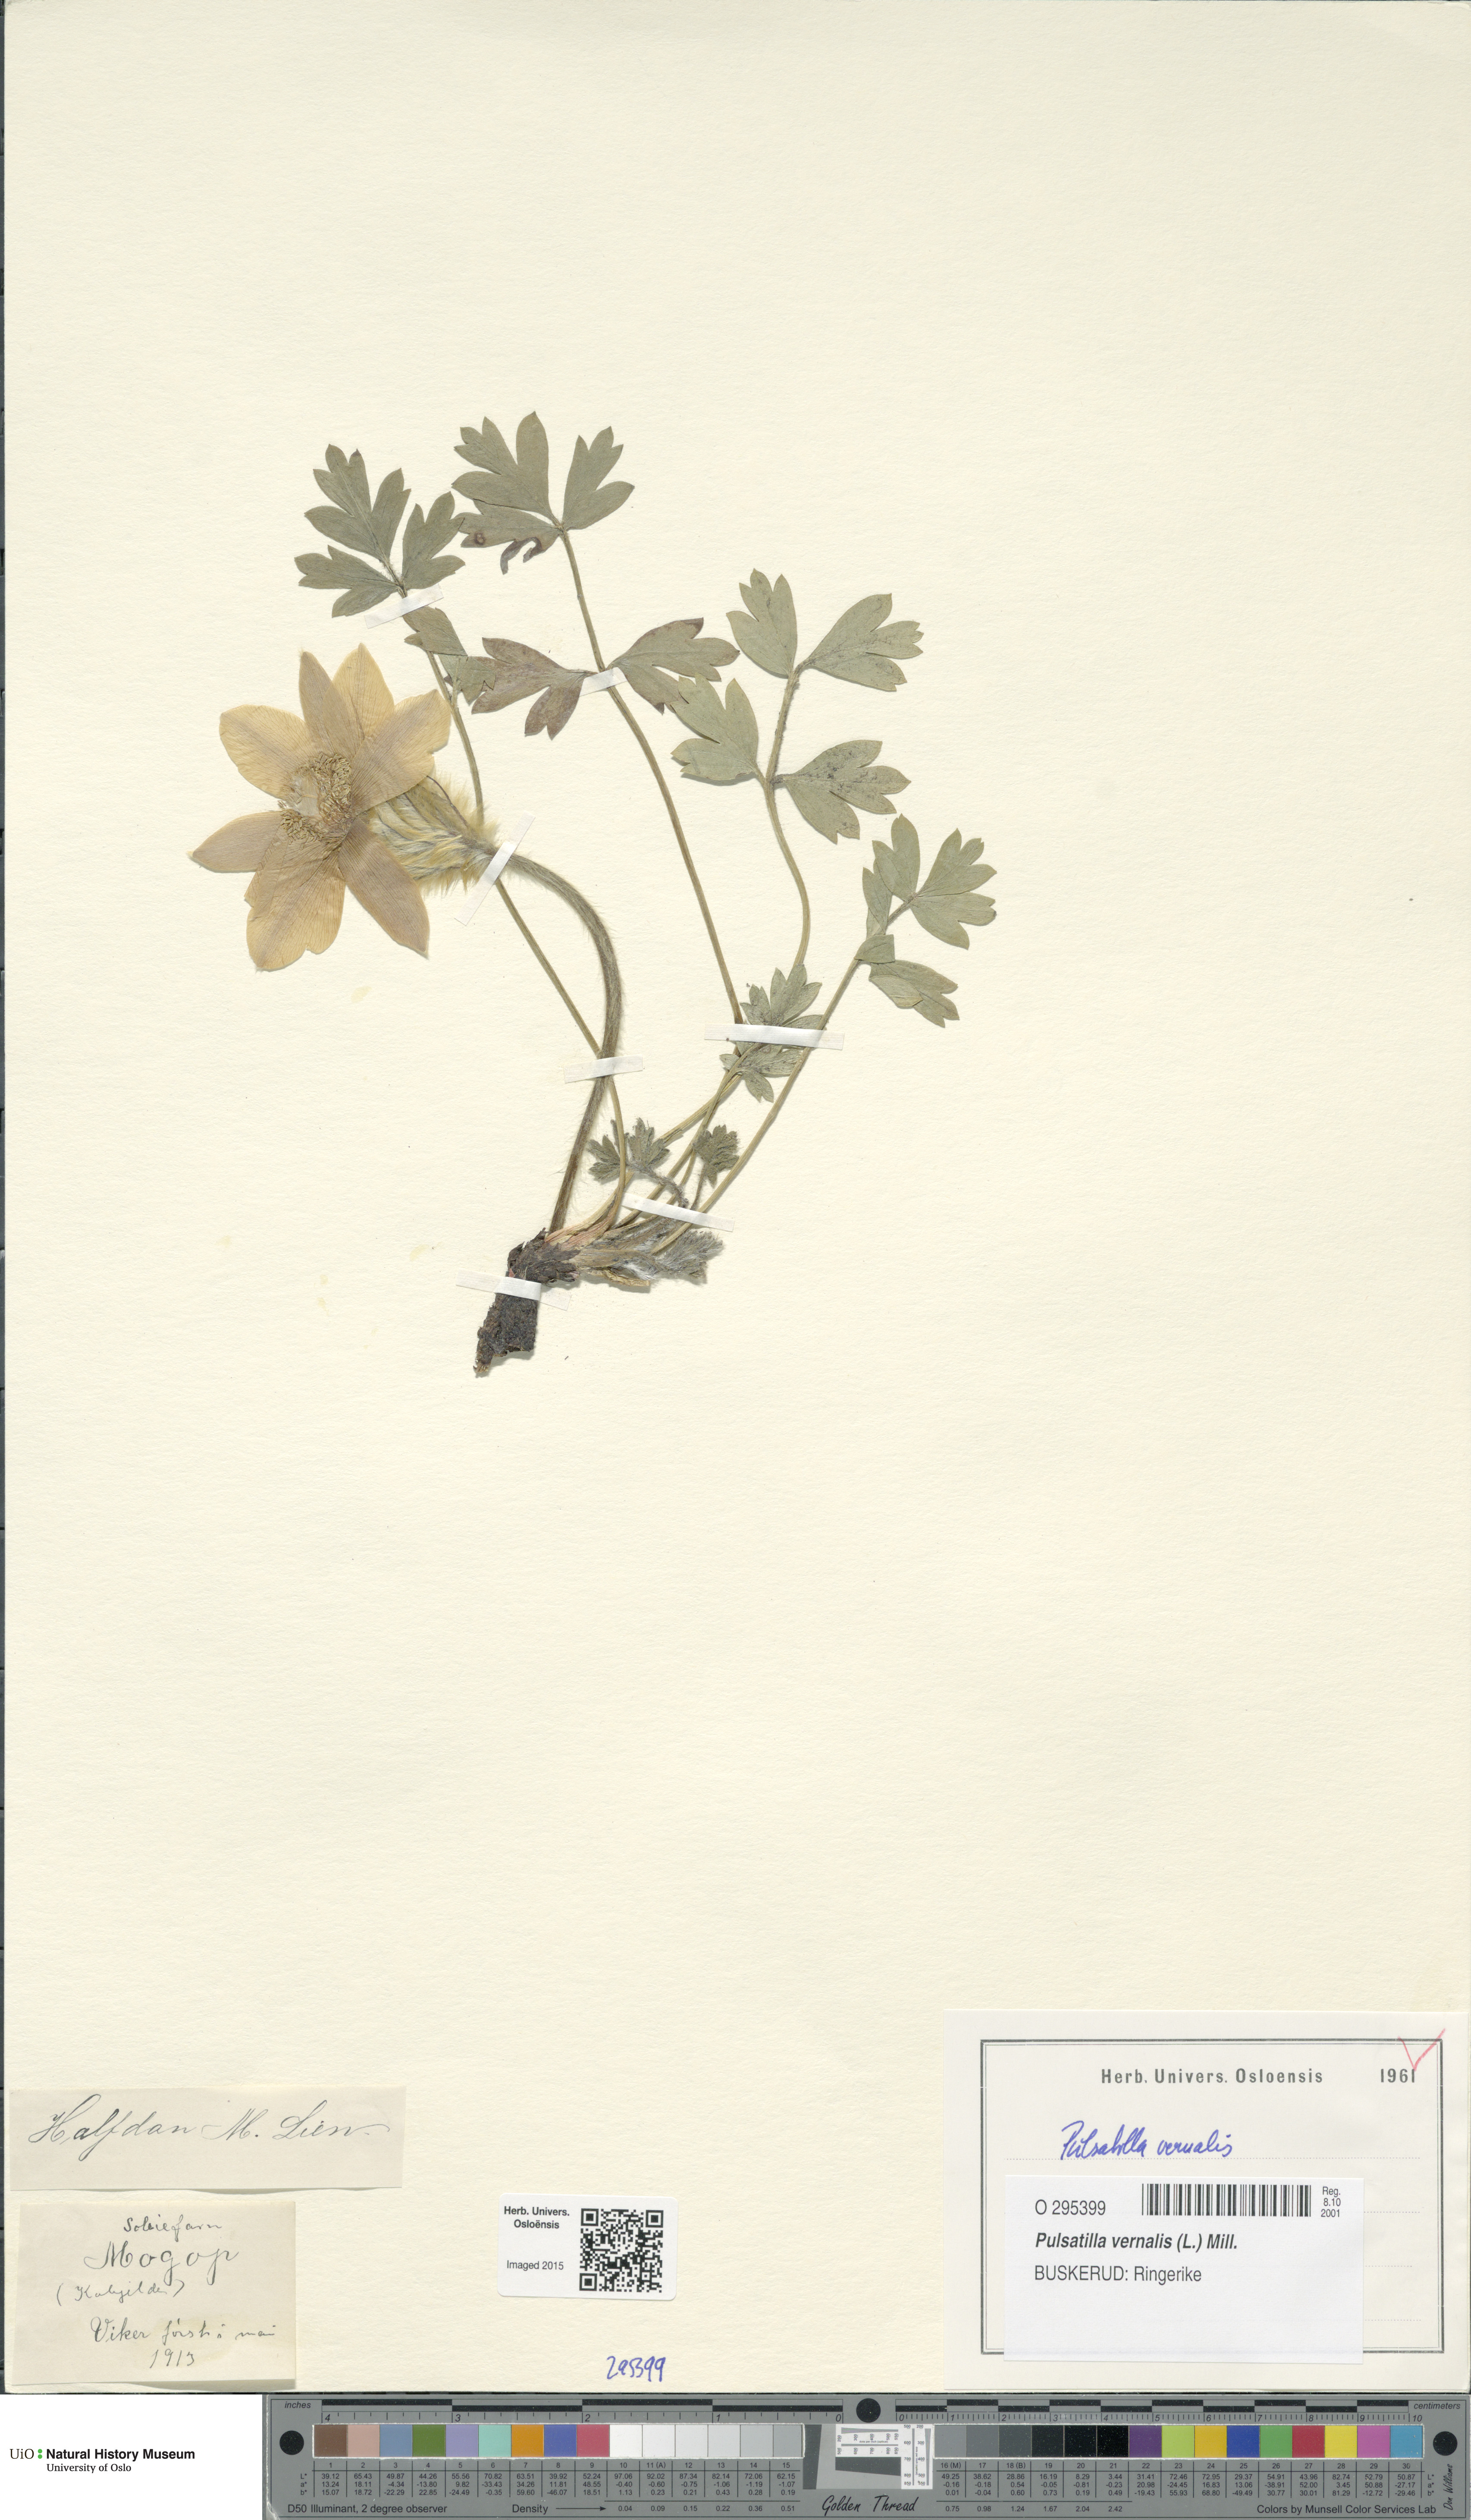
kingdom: Plantae
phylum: Tracheophyta
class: Magnoliopsida
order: Ranunculales
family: Ranunculaceae
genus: Pulsatilla
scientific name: Pulsatilla vernalis
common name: Spring pasque flower
